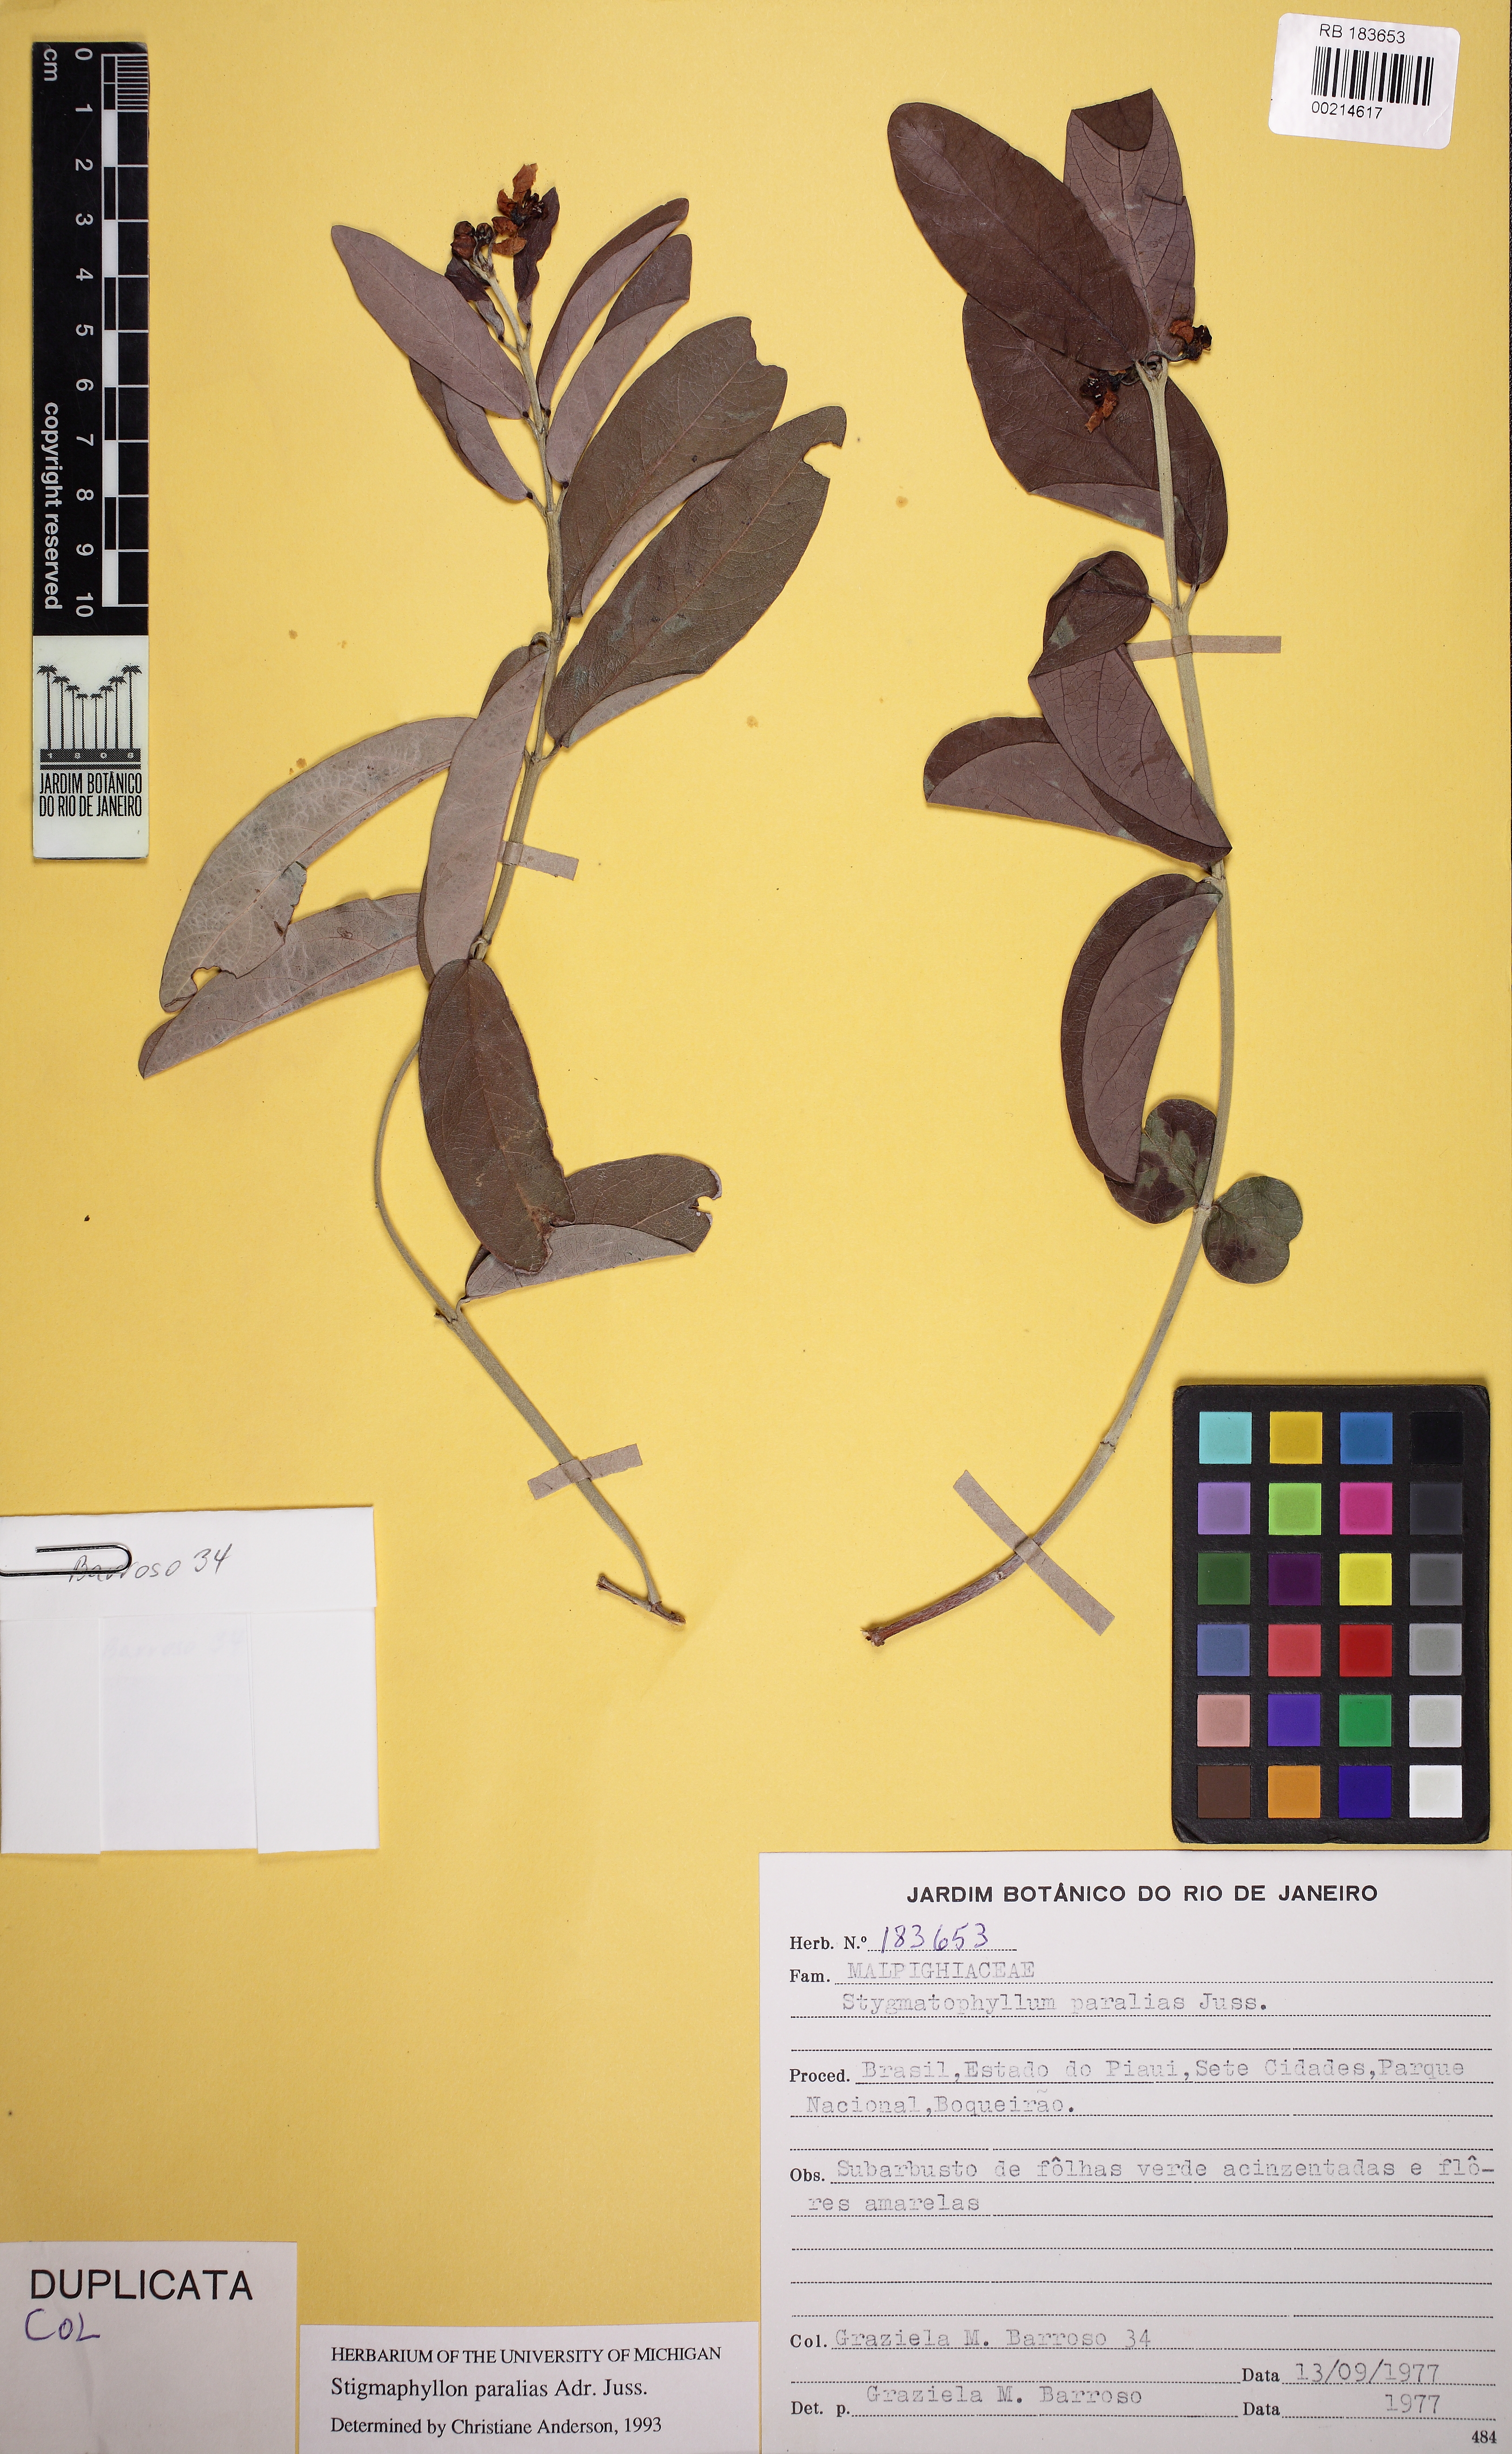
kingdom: Plantae
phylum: Tracheophyta
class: Magnoliopsida
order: Malpighiales
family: Malpighiaceae
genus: Stigmaphyllon
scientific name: Stigmaphyllon paralias
